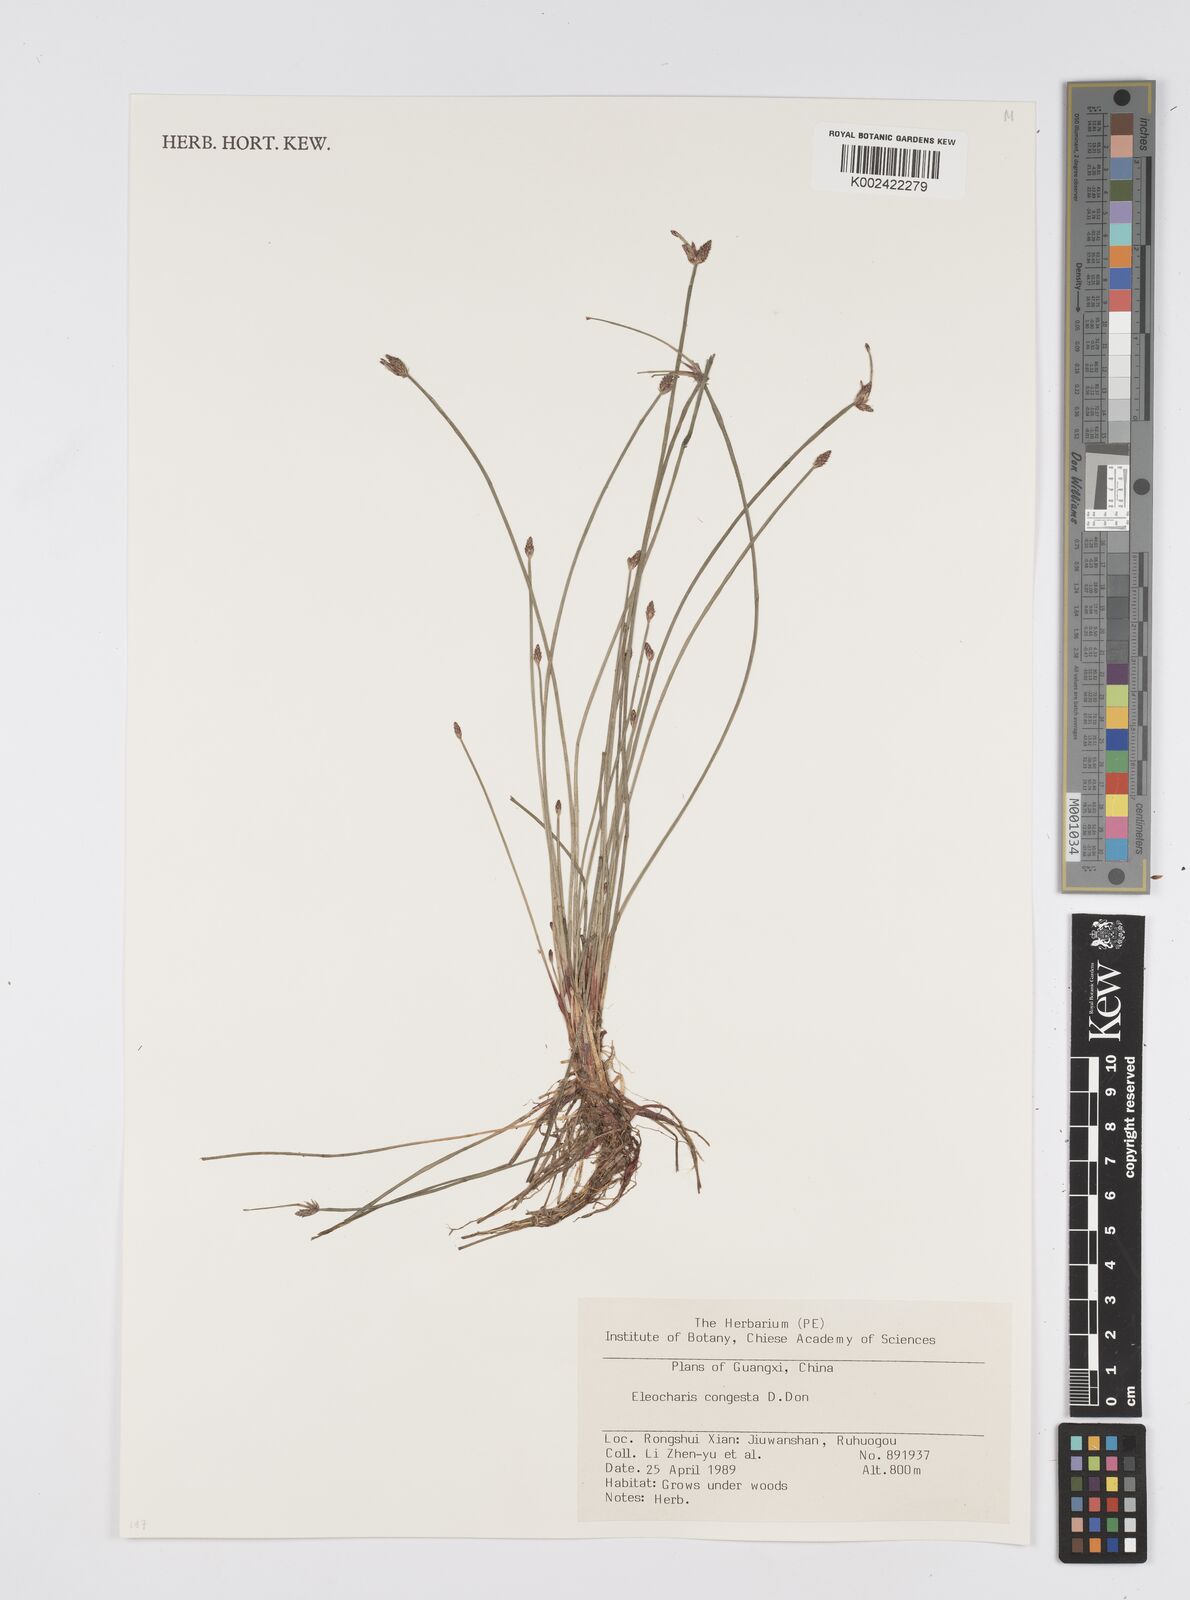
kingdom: Plantae
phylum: Tracheophyta
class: Liliopsida
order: Poales
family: Cyperaceae
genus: Eleocharis
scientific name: Eleocharis congesta
